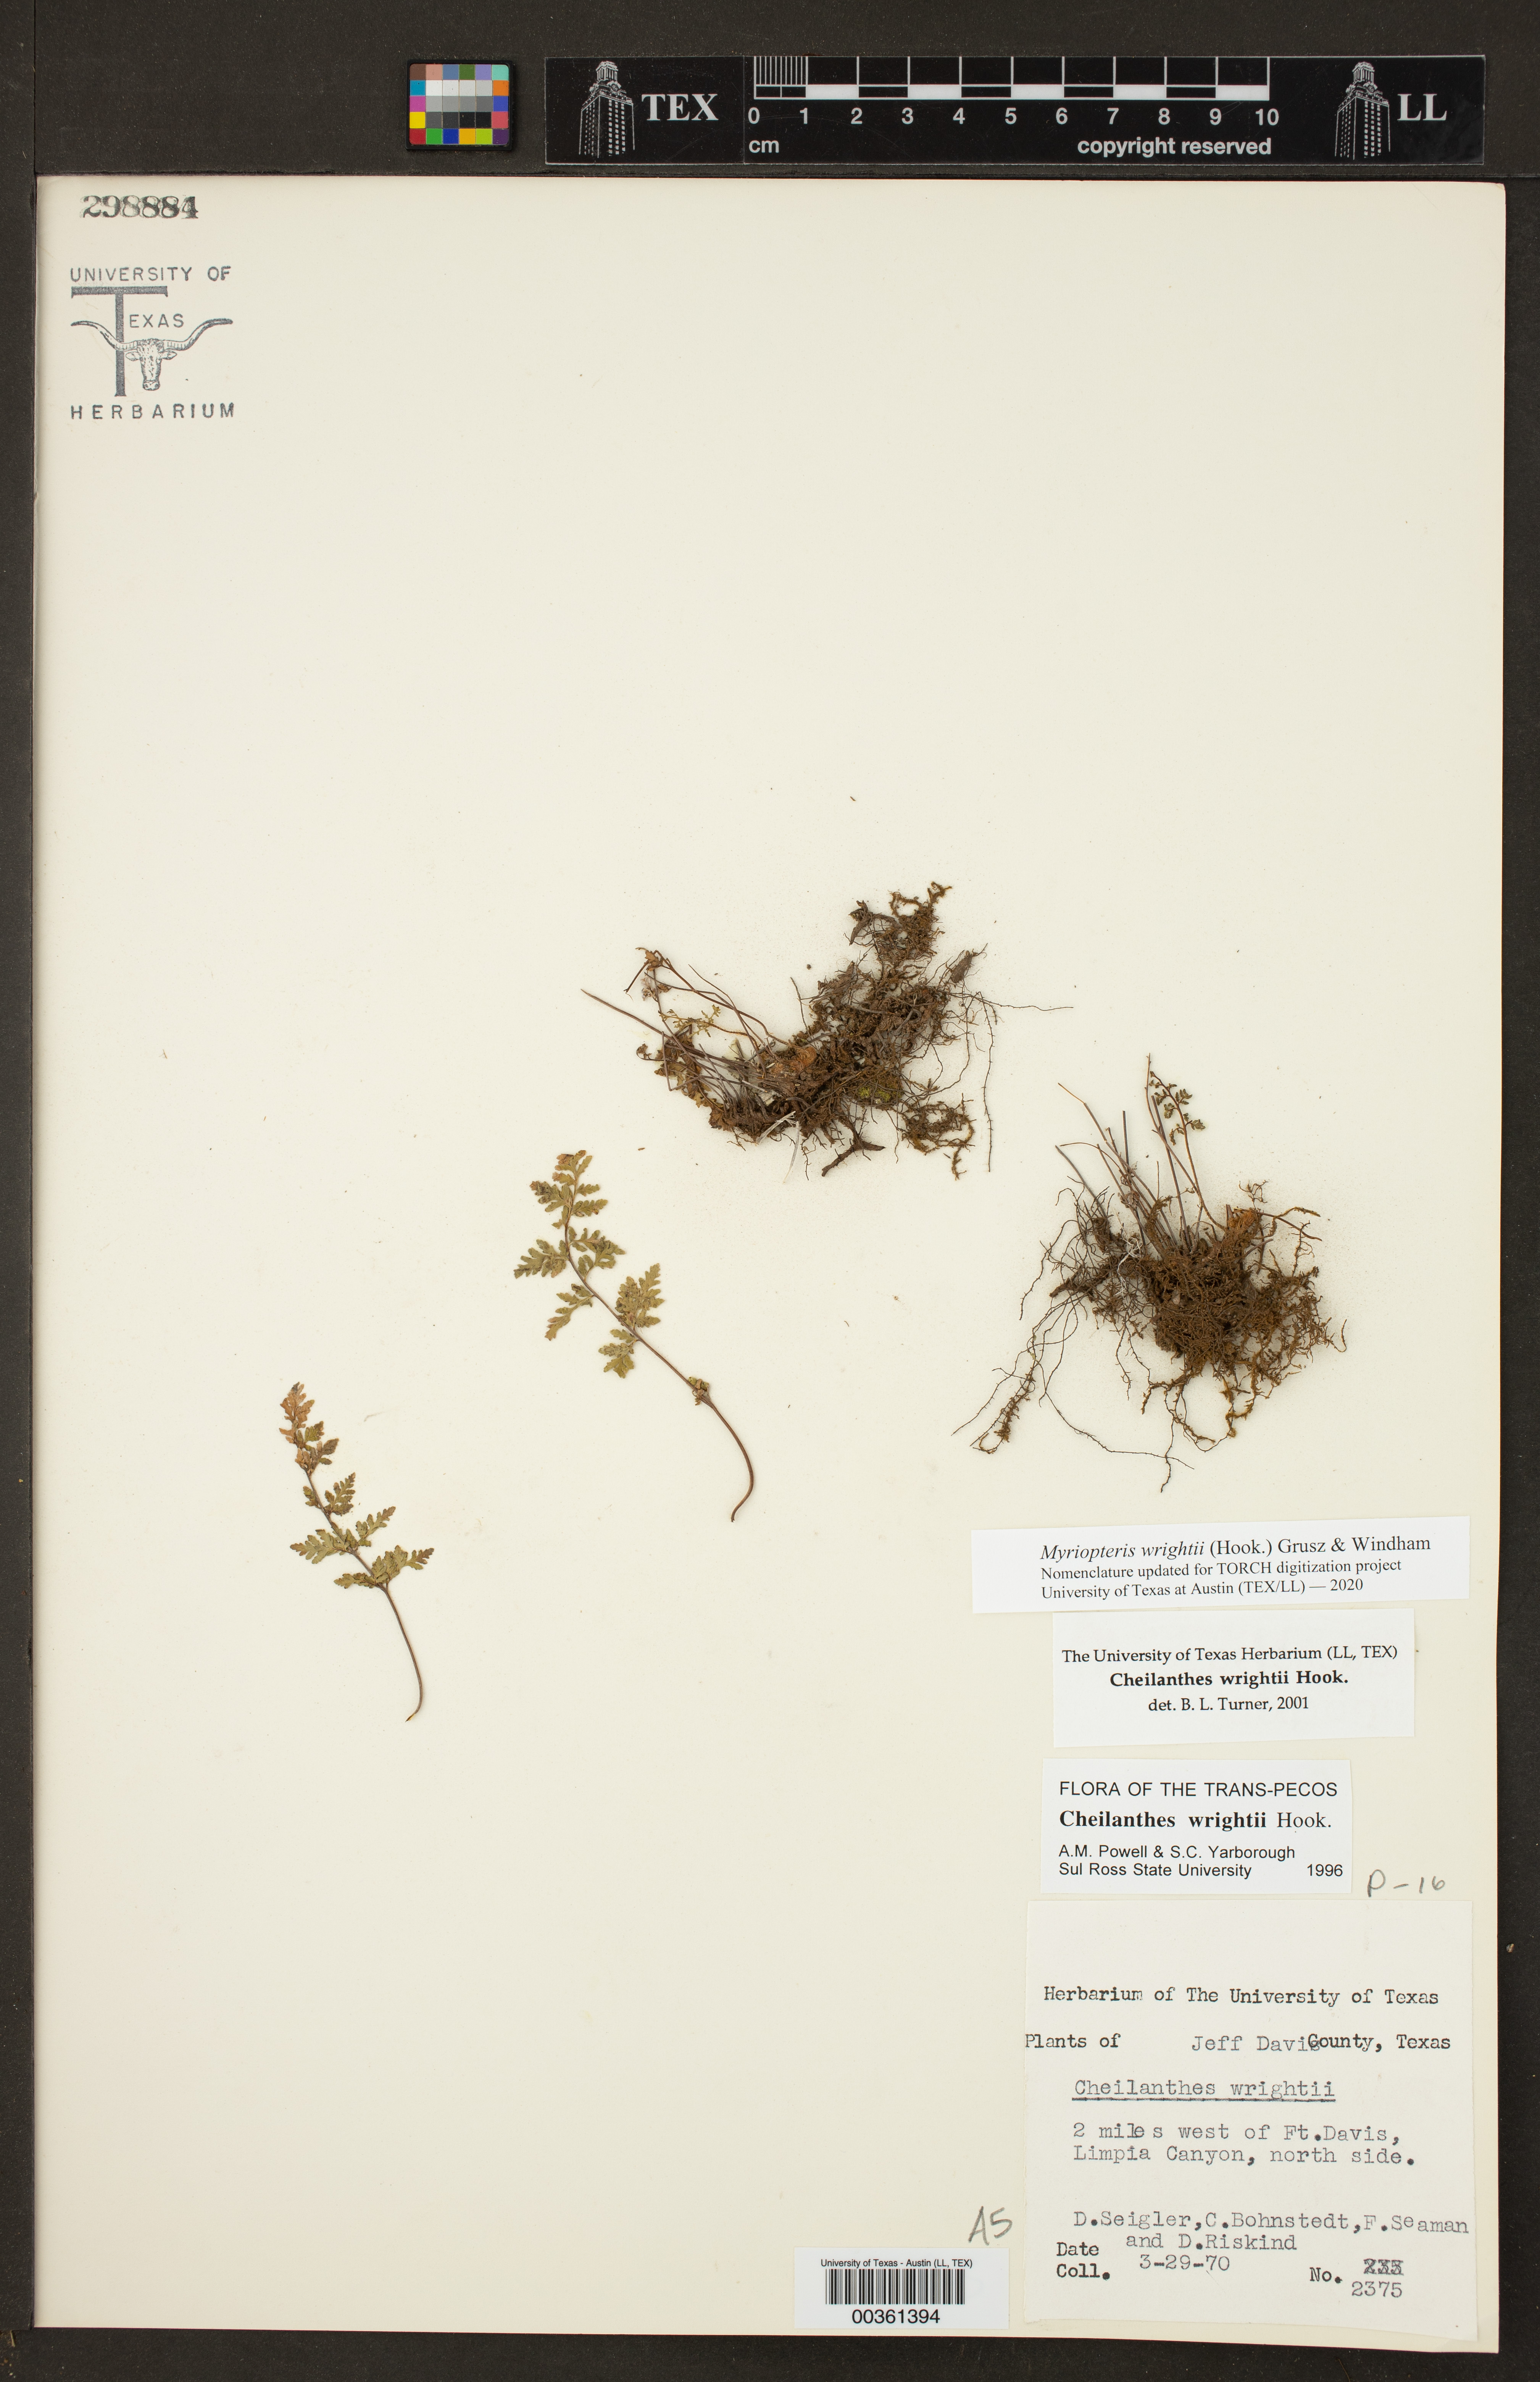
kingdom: Plantae
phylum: Tracheophyta
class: Polypodiopsida
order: Polypodiales
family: Pteridaceae
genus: Myriopteris
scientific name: Myriopteris wrightii
